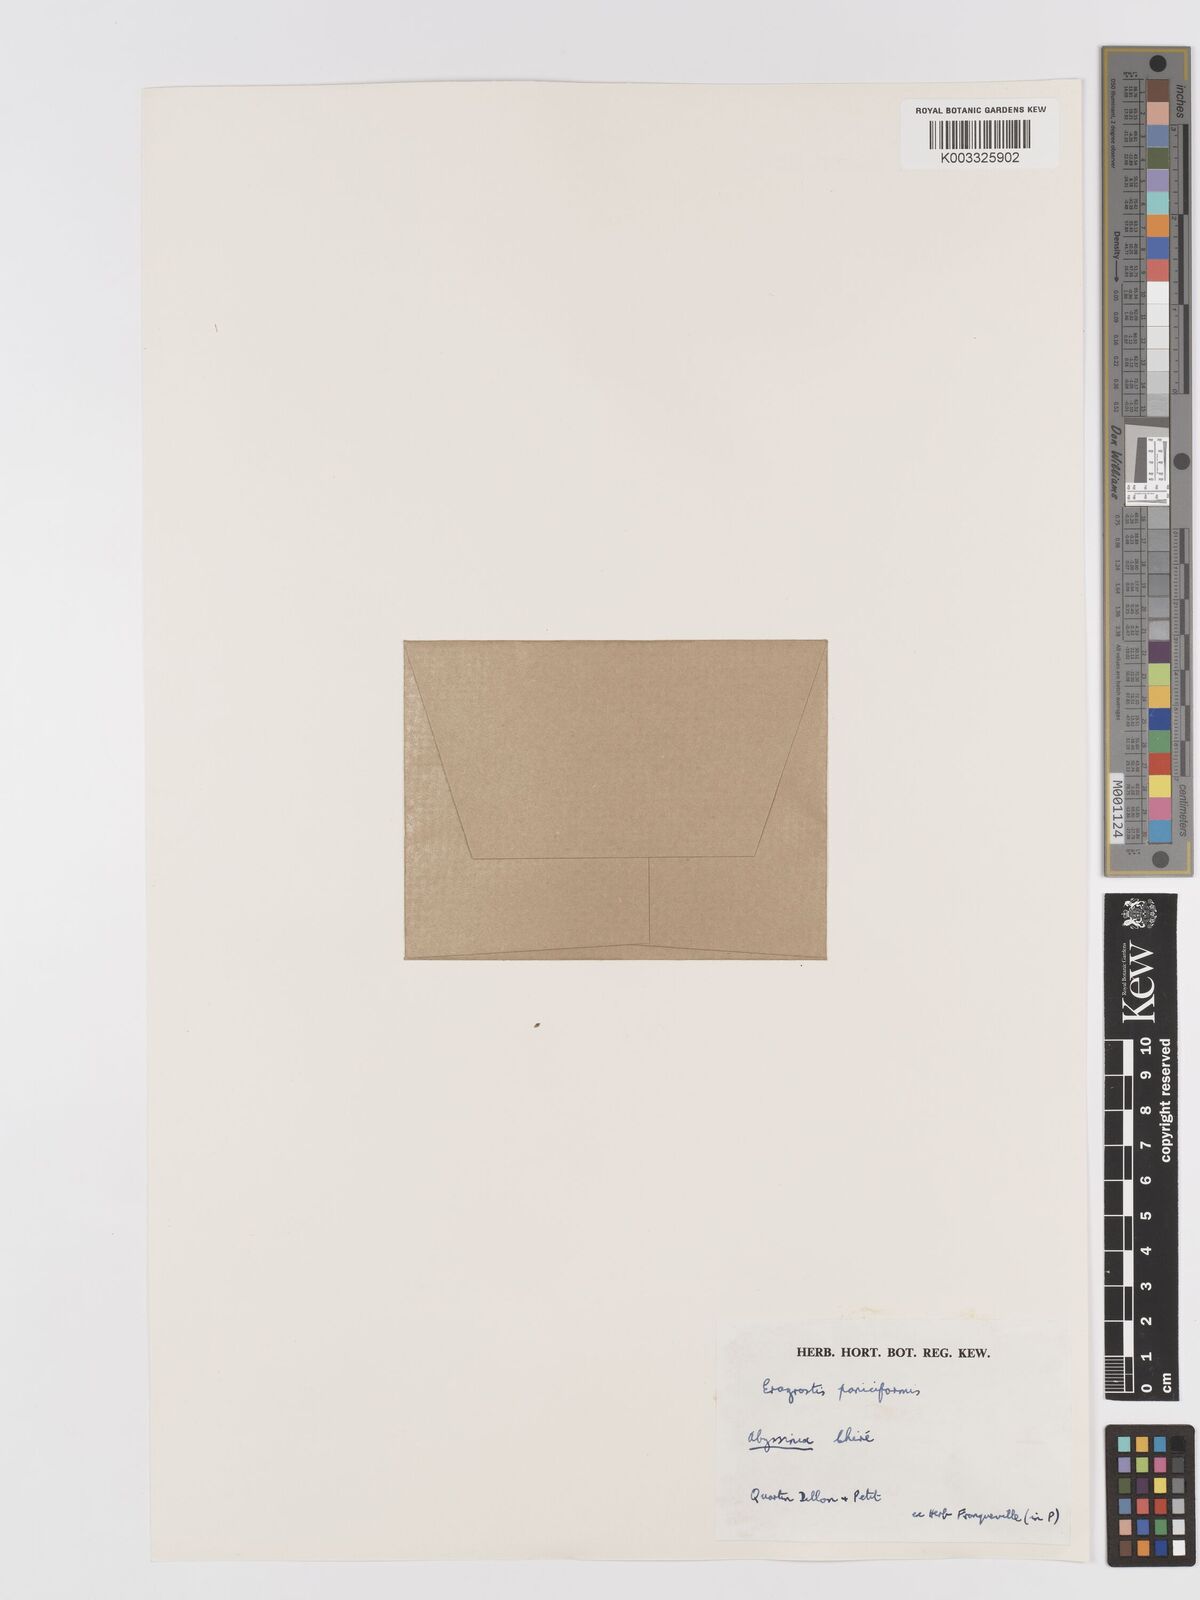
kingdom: Plantae
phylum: Tracheophyta
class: Liliopsida
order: Poales
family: Poaceae
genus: Eragrostis
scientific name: Eragrostis paniciformis
